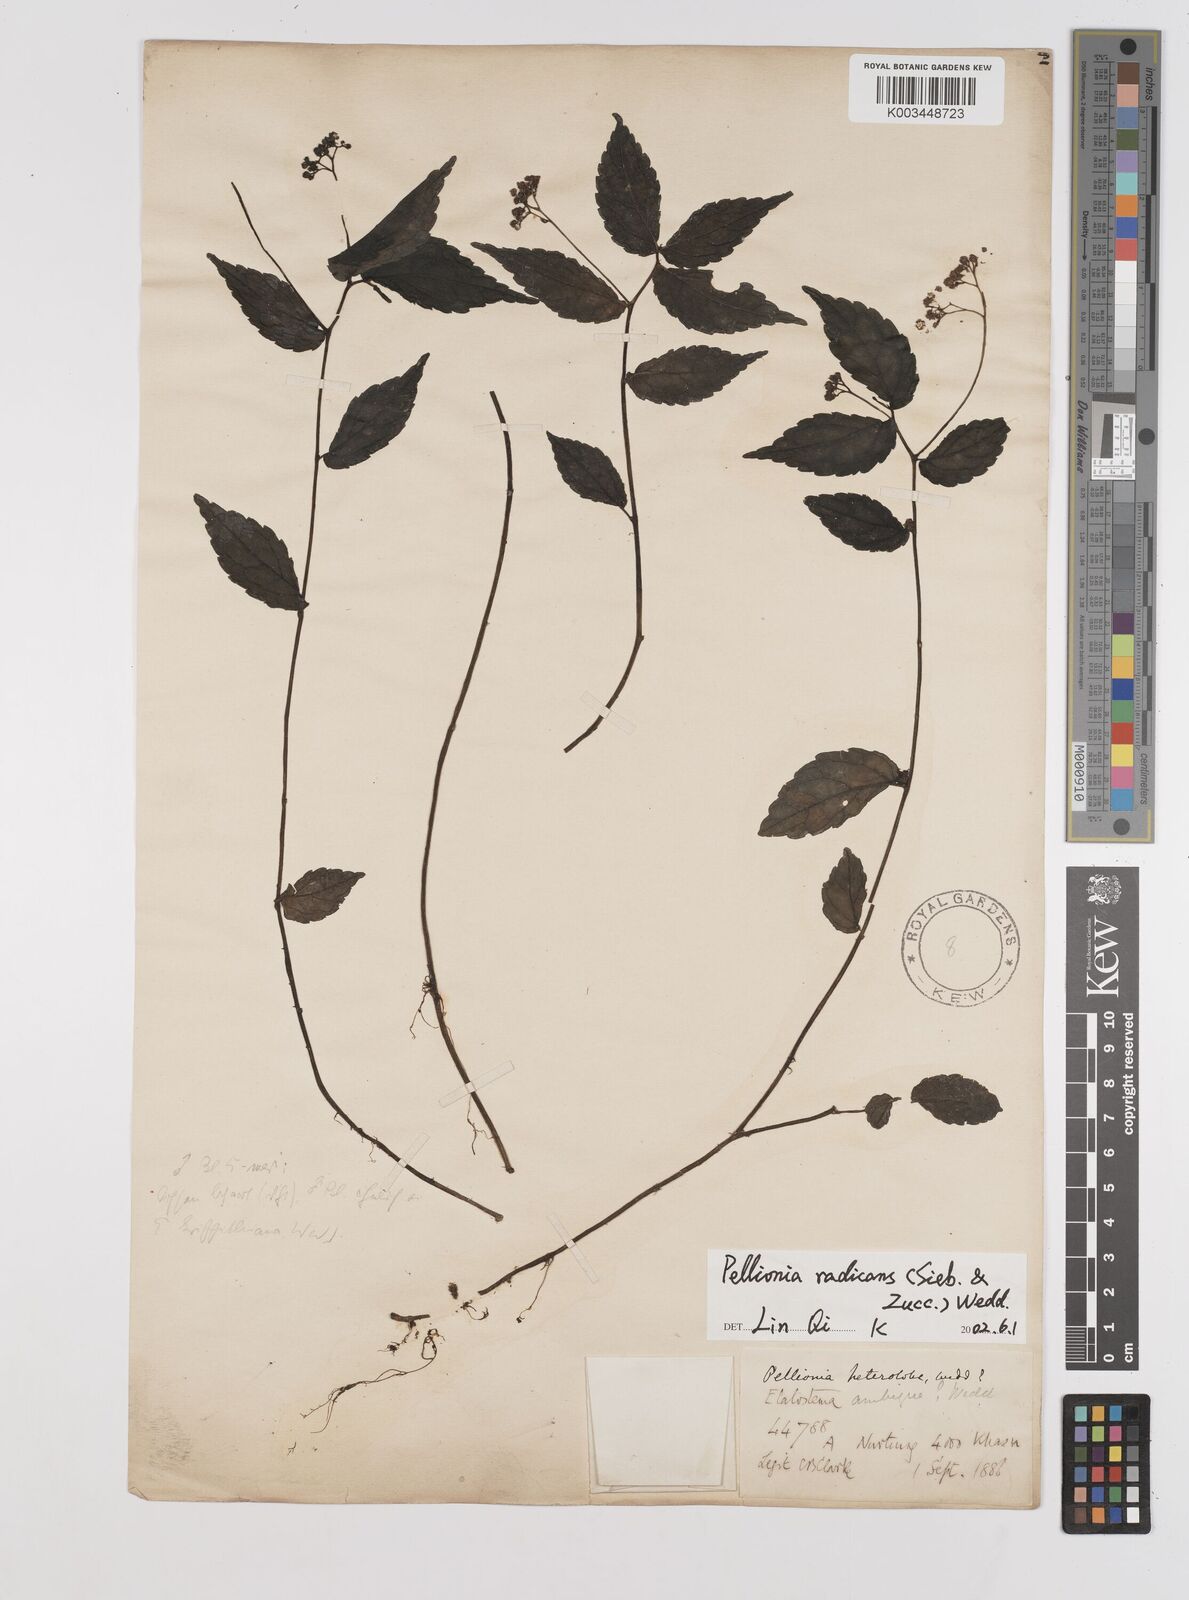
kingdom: Plantae
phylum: Tracheophyta
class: Magnoliopsida
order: Rosales
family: Urticaceae
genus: Elatostema
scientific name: Elatostema radicans
